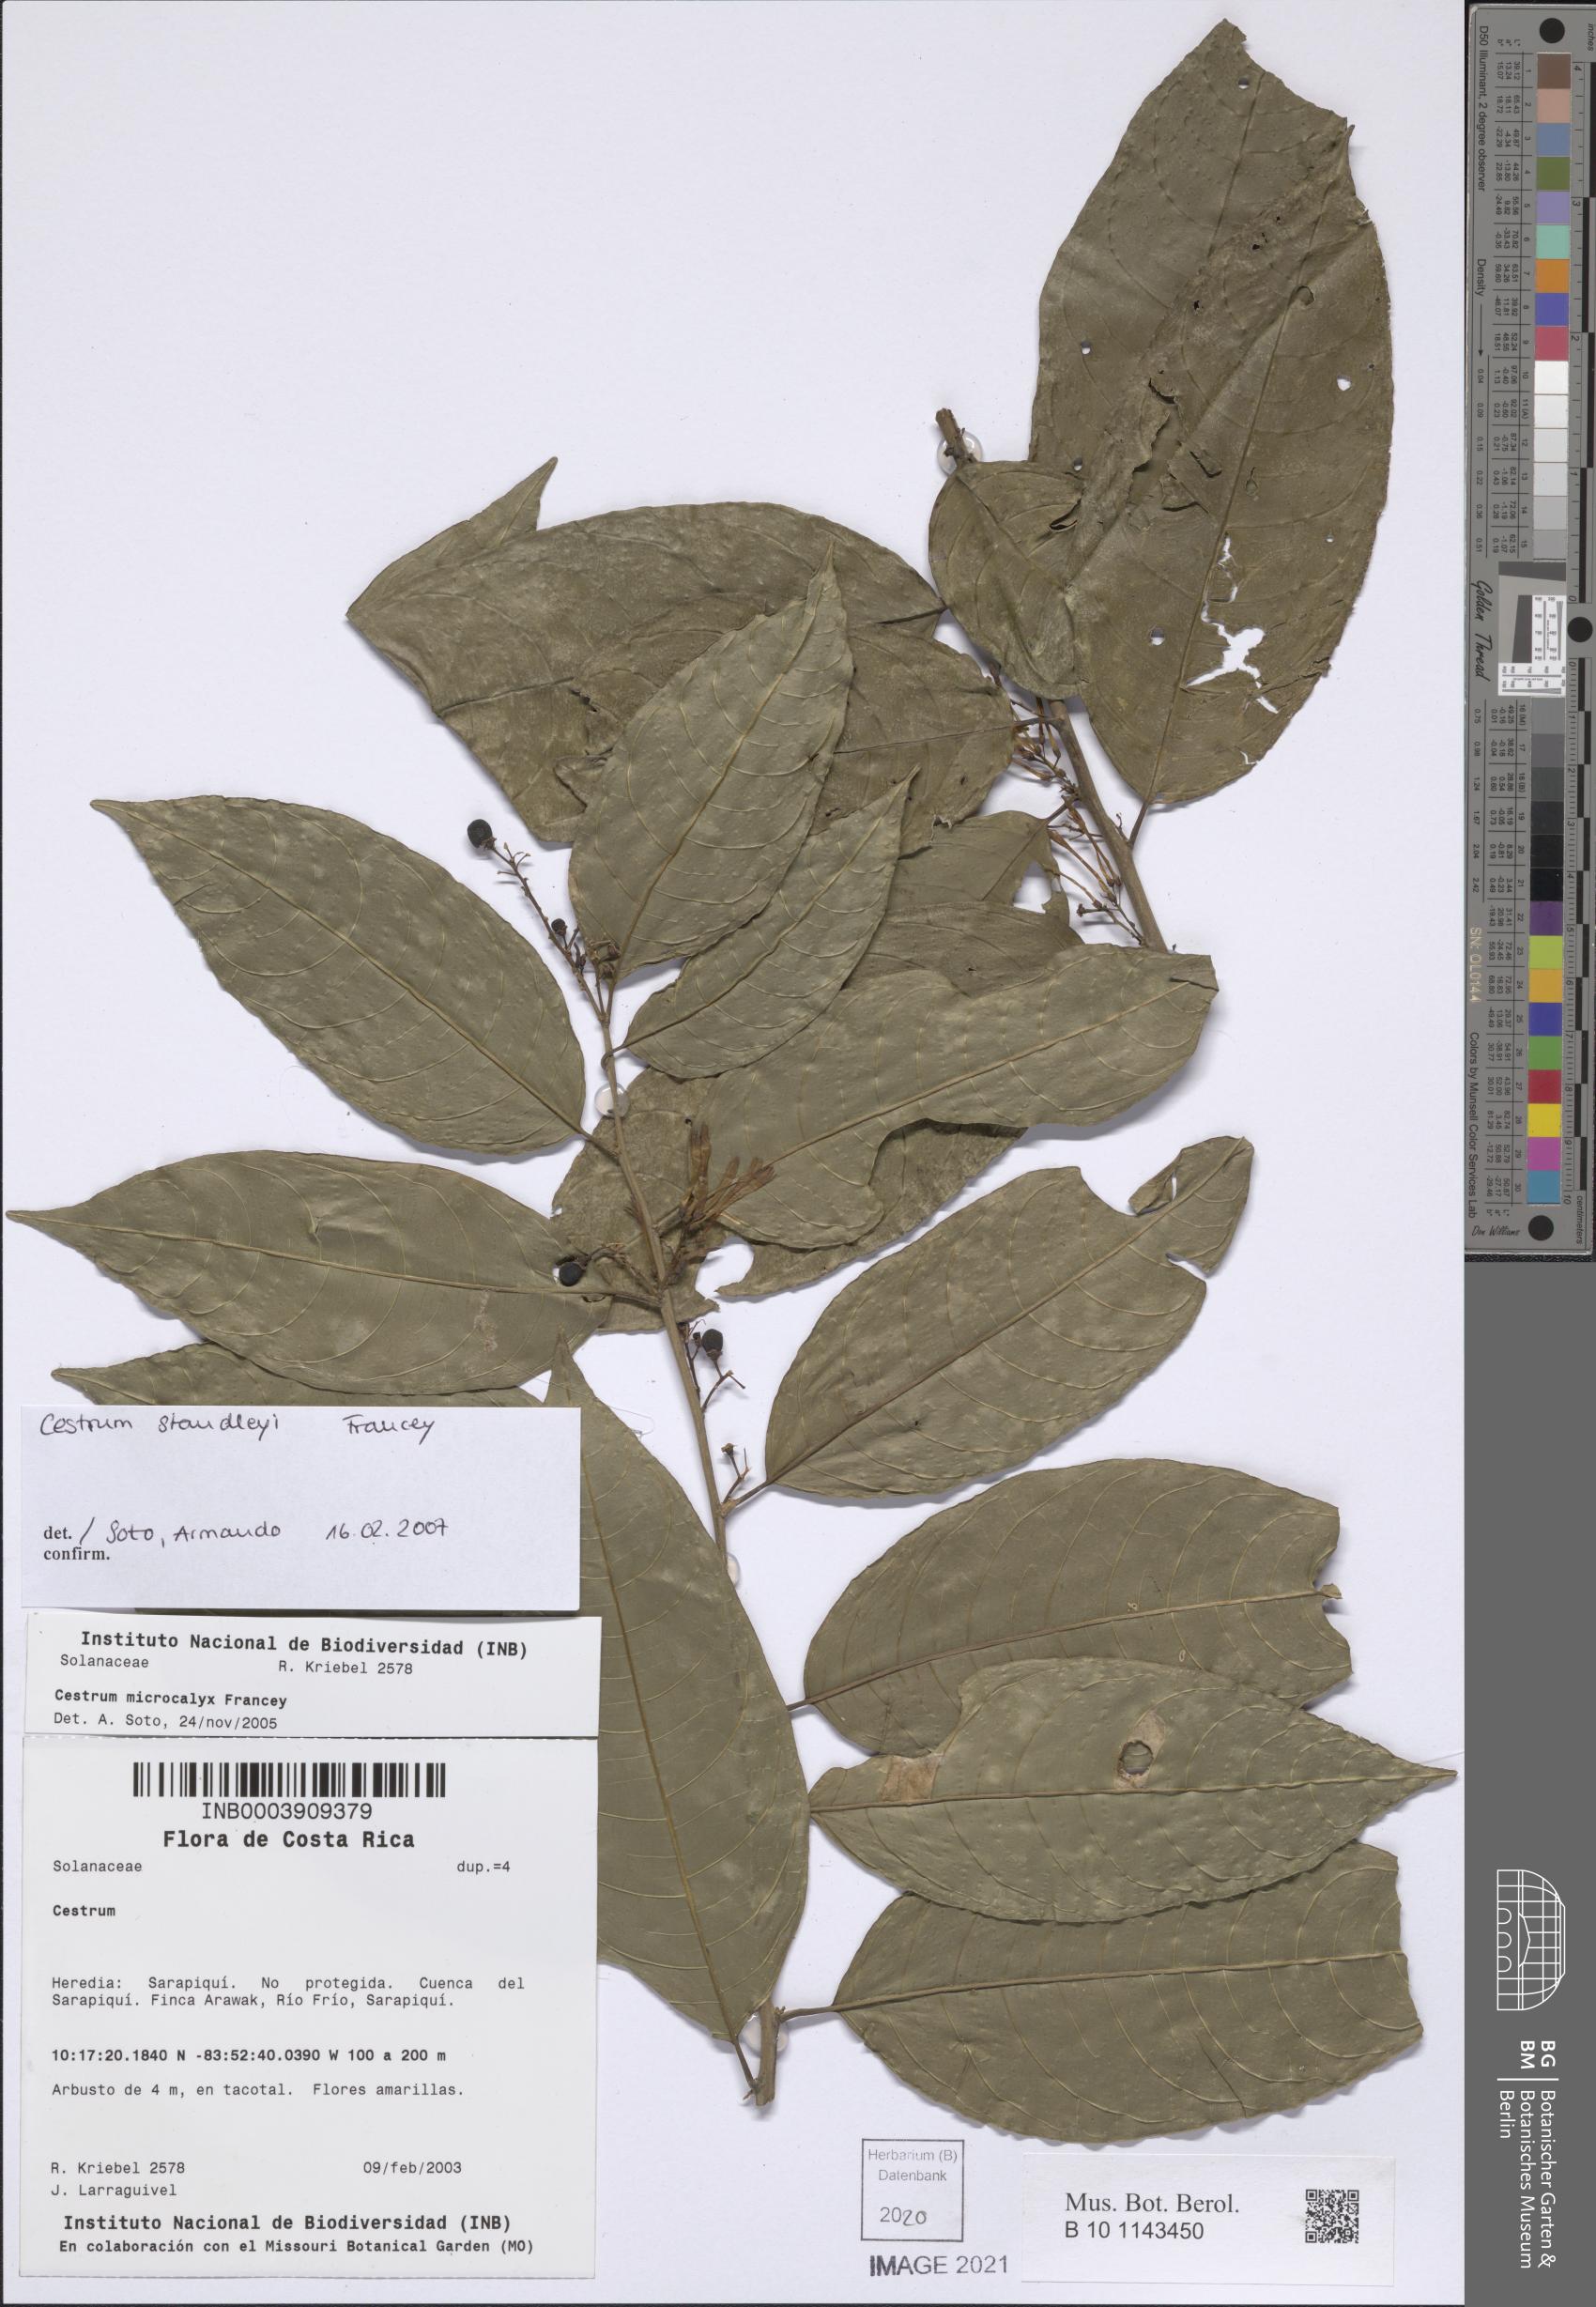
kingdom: Plantae
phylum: Tracheophyta
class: Magnoliopsida
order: Solanales
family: Solanaceae
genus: Cestrum
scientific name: Cestrum
